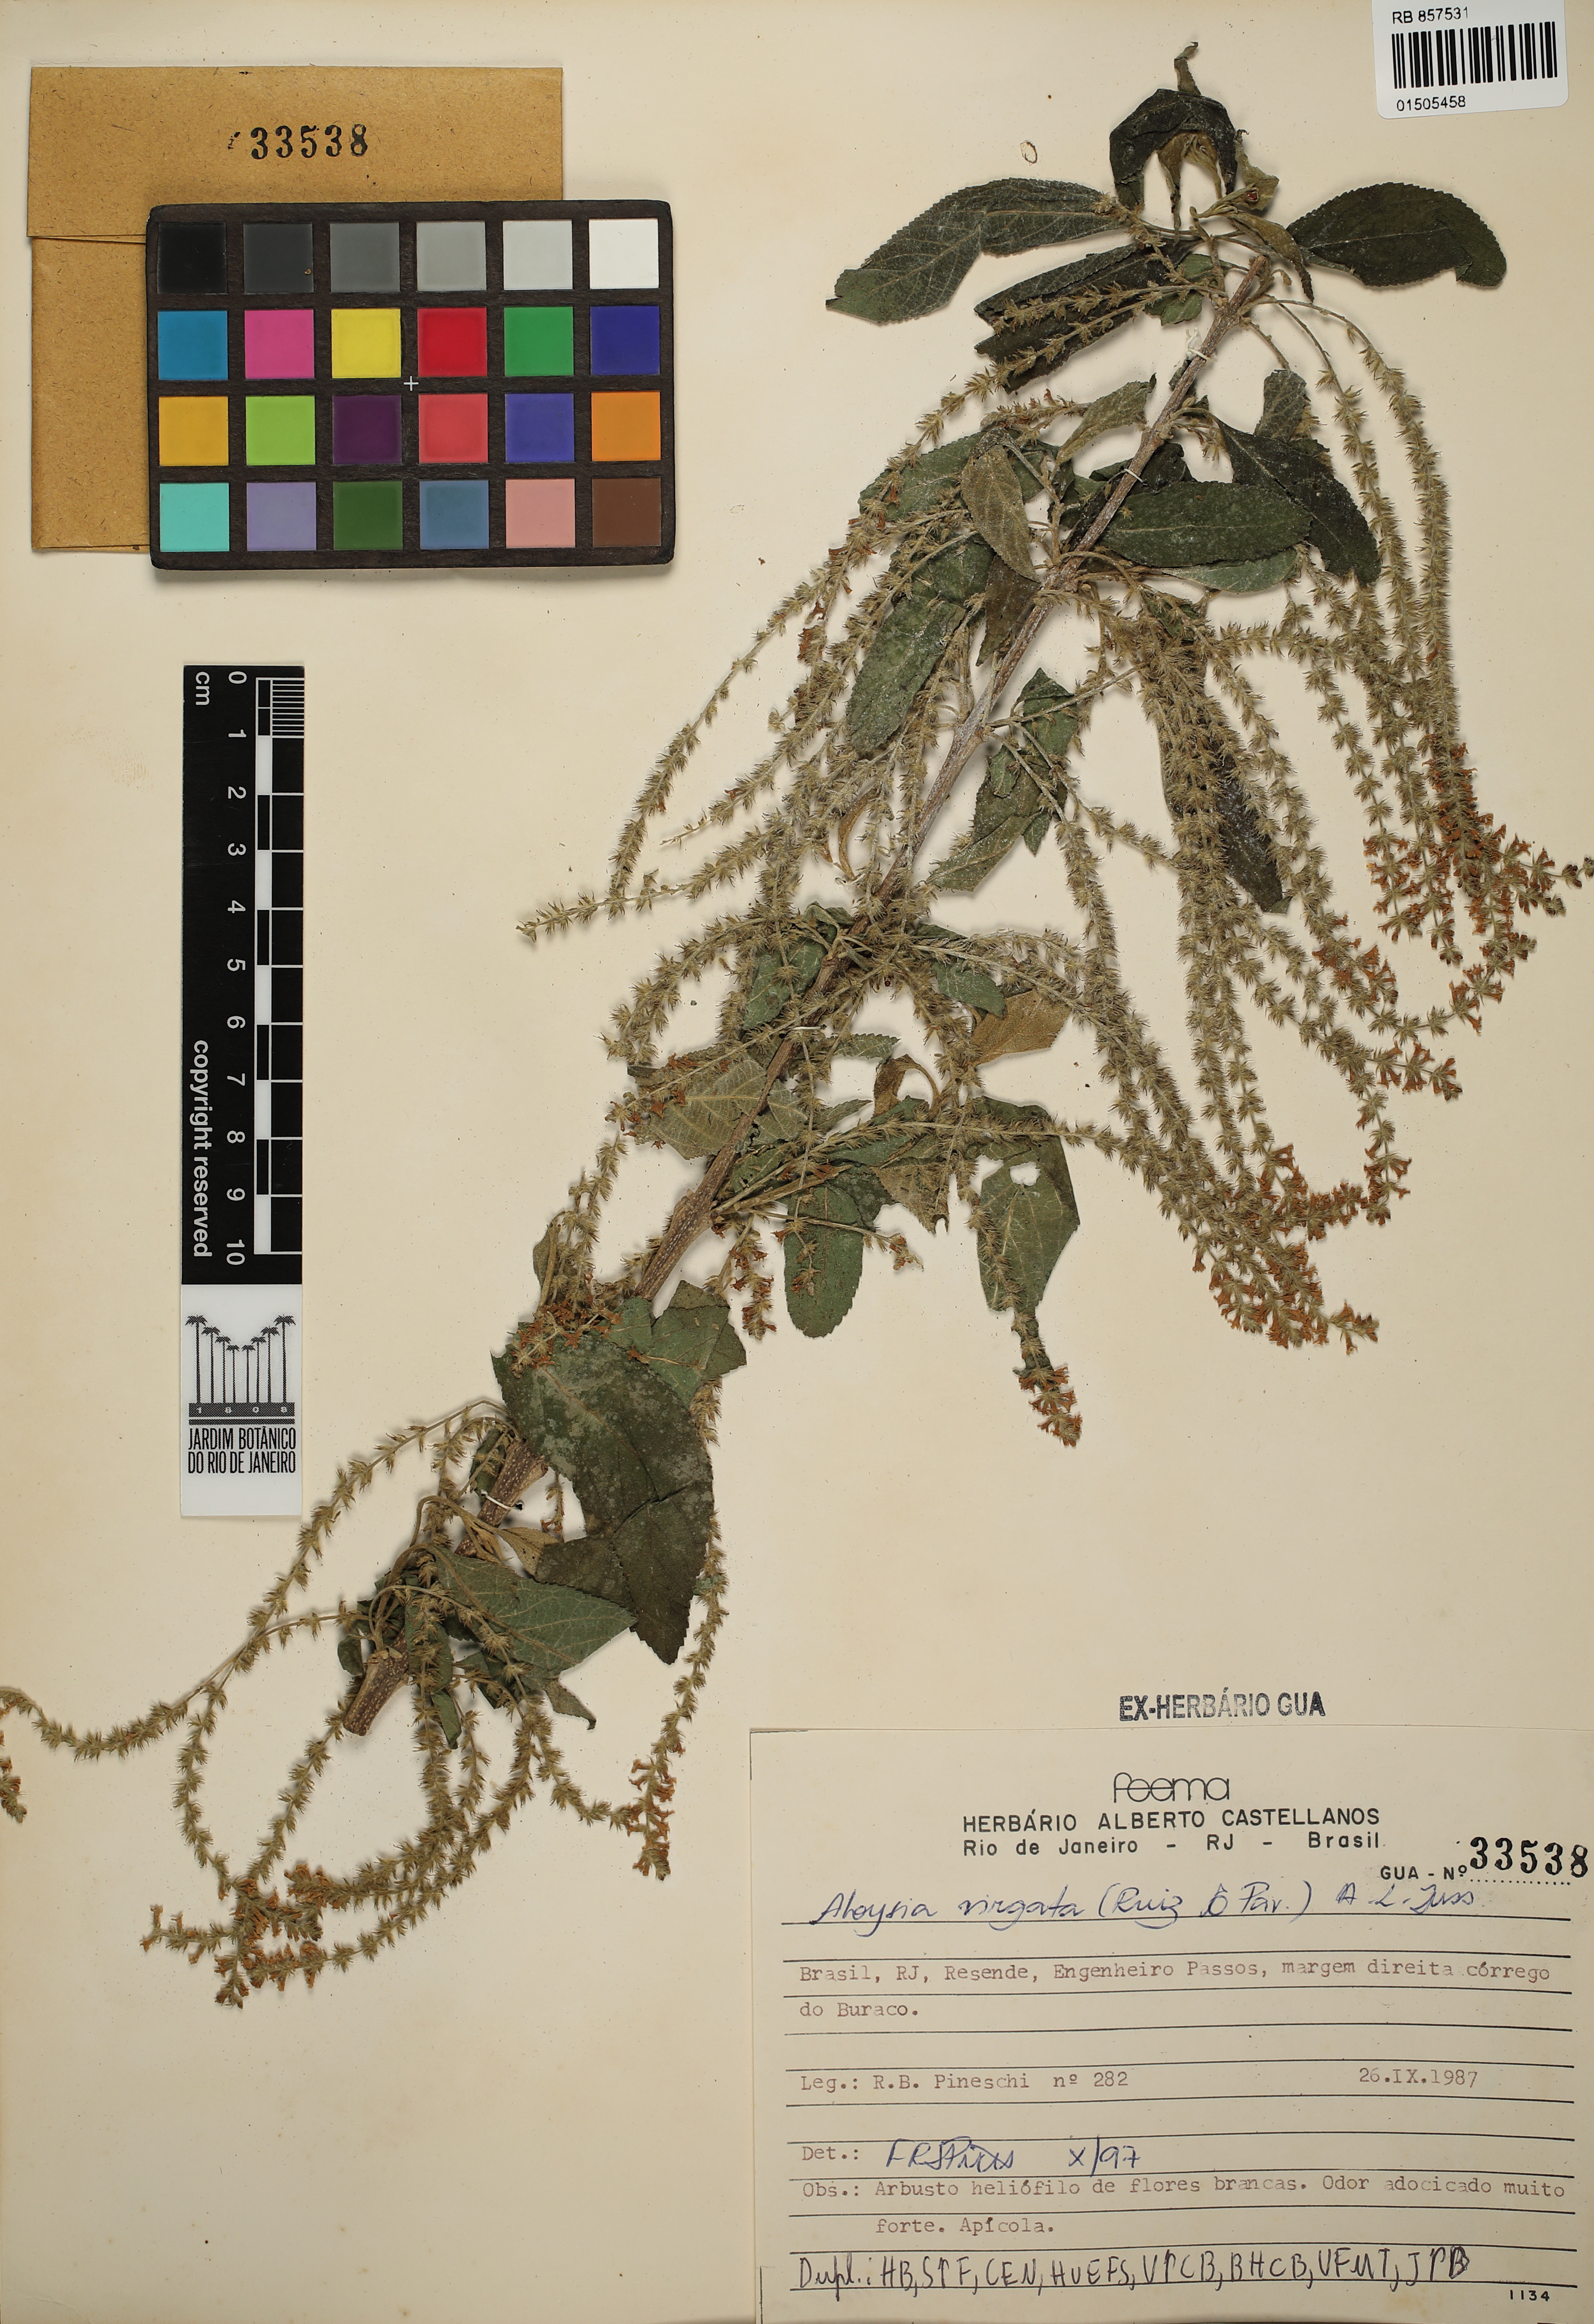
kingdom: Plantae
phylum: Tracheophyta
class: Magnoliopsida
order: Lamiales
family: Verbenaceae
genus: Aloysia
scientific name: Aloysia virgata
